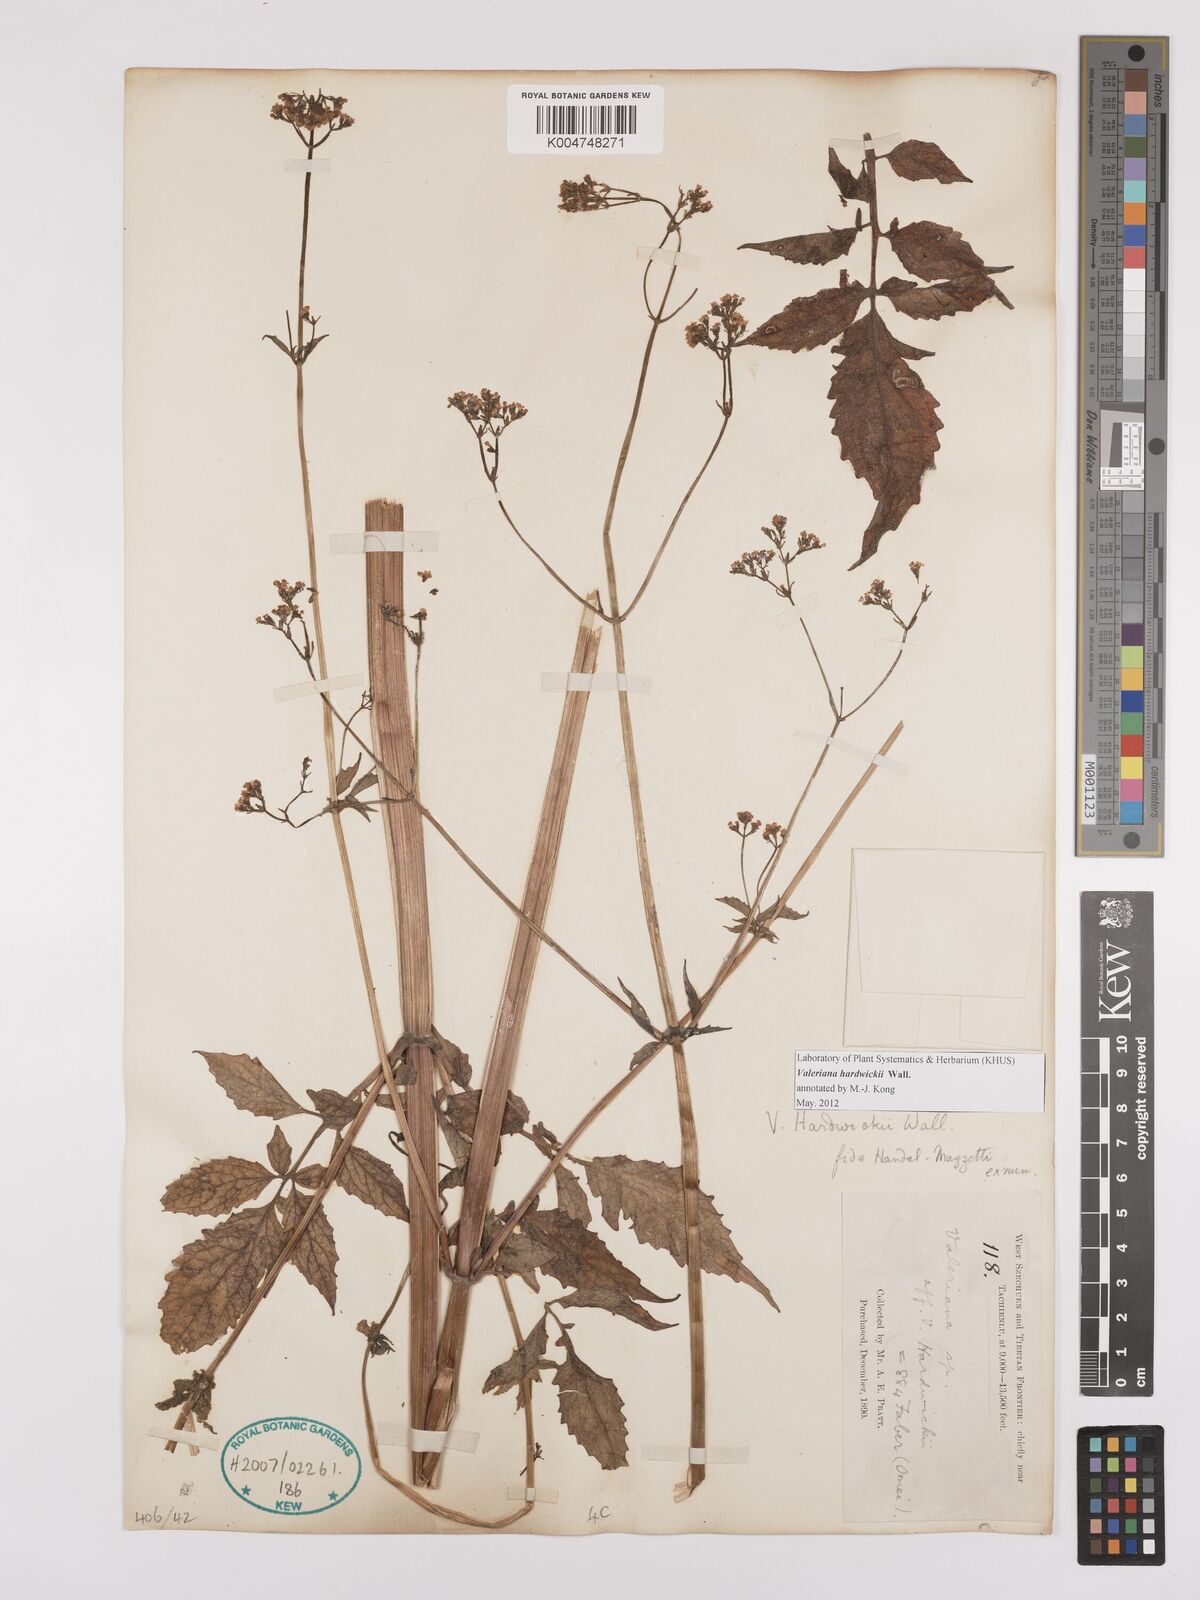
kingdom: Plantae
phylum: Tracheophyta
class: Magnoliopsida
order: Dipsacales
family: Caprifoliaceae
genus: Valeriana
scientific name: Valeriana hardwickei
